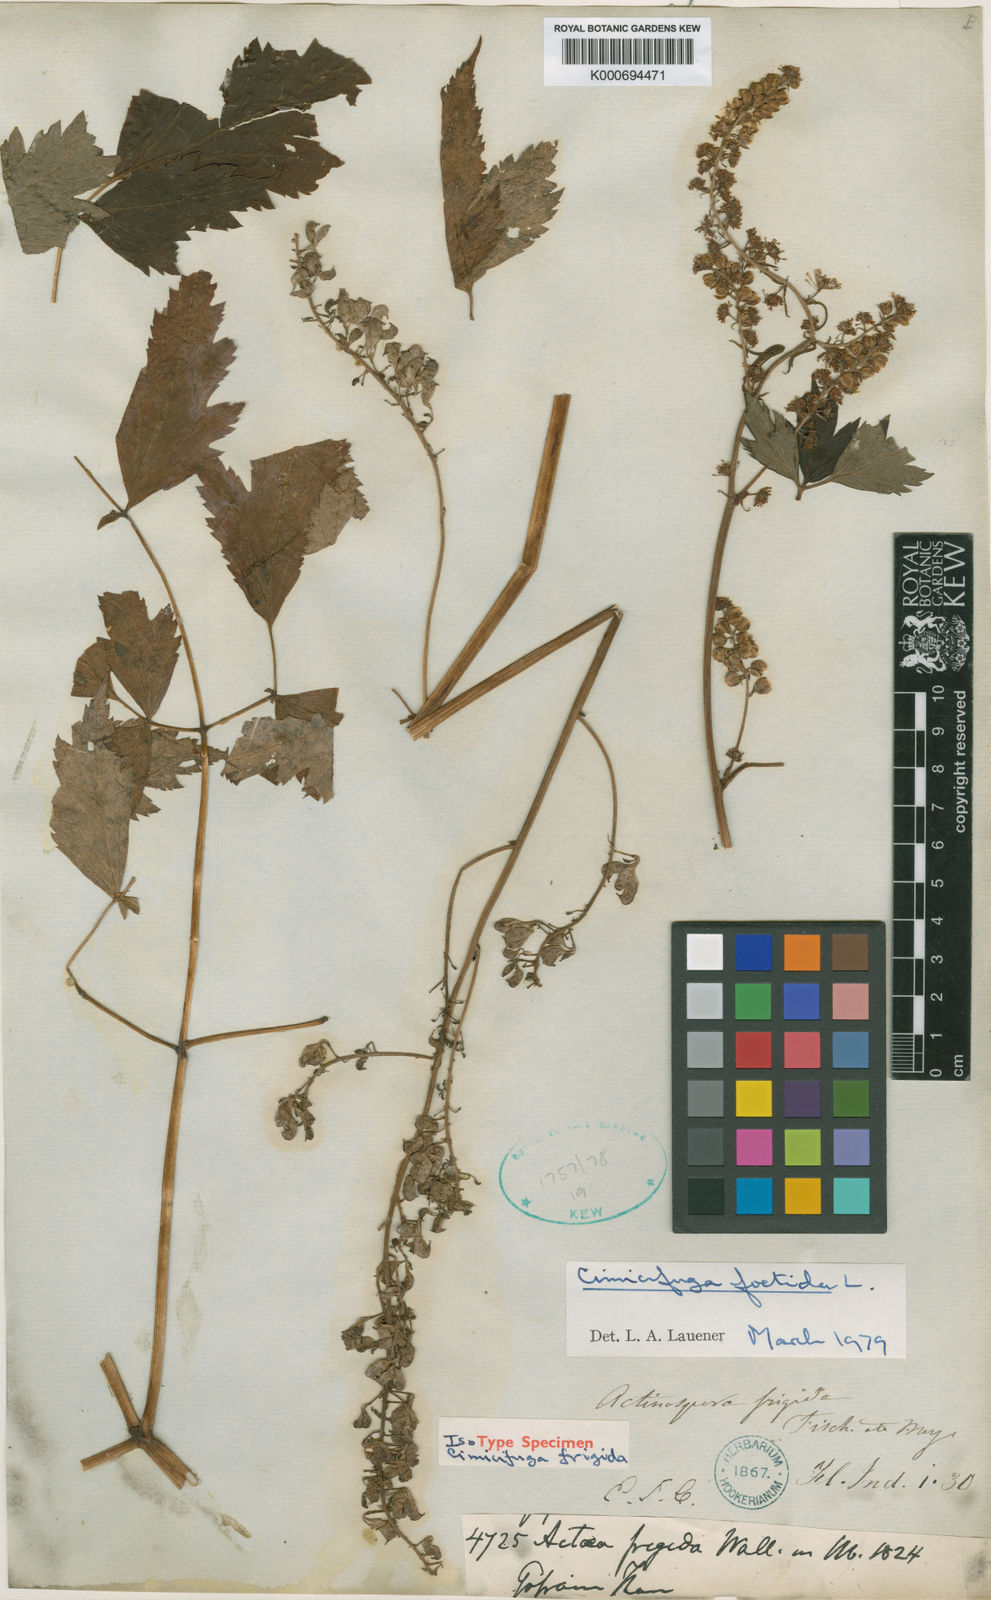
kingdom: Plantae
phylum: Tracheophyta
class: Magnoliopsida
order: Ranunculales
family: Ranunculaceae
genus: Actaea
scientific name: Actaea cimicifuga
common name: Chinese cimicifuga
